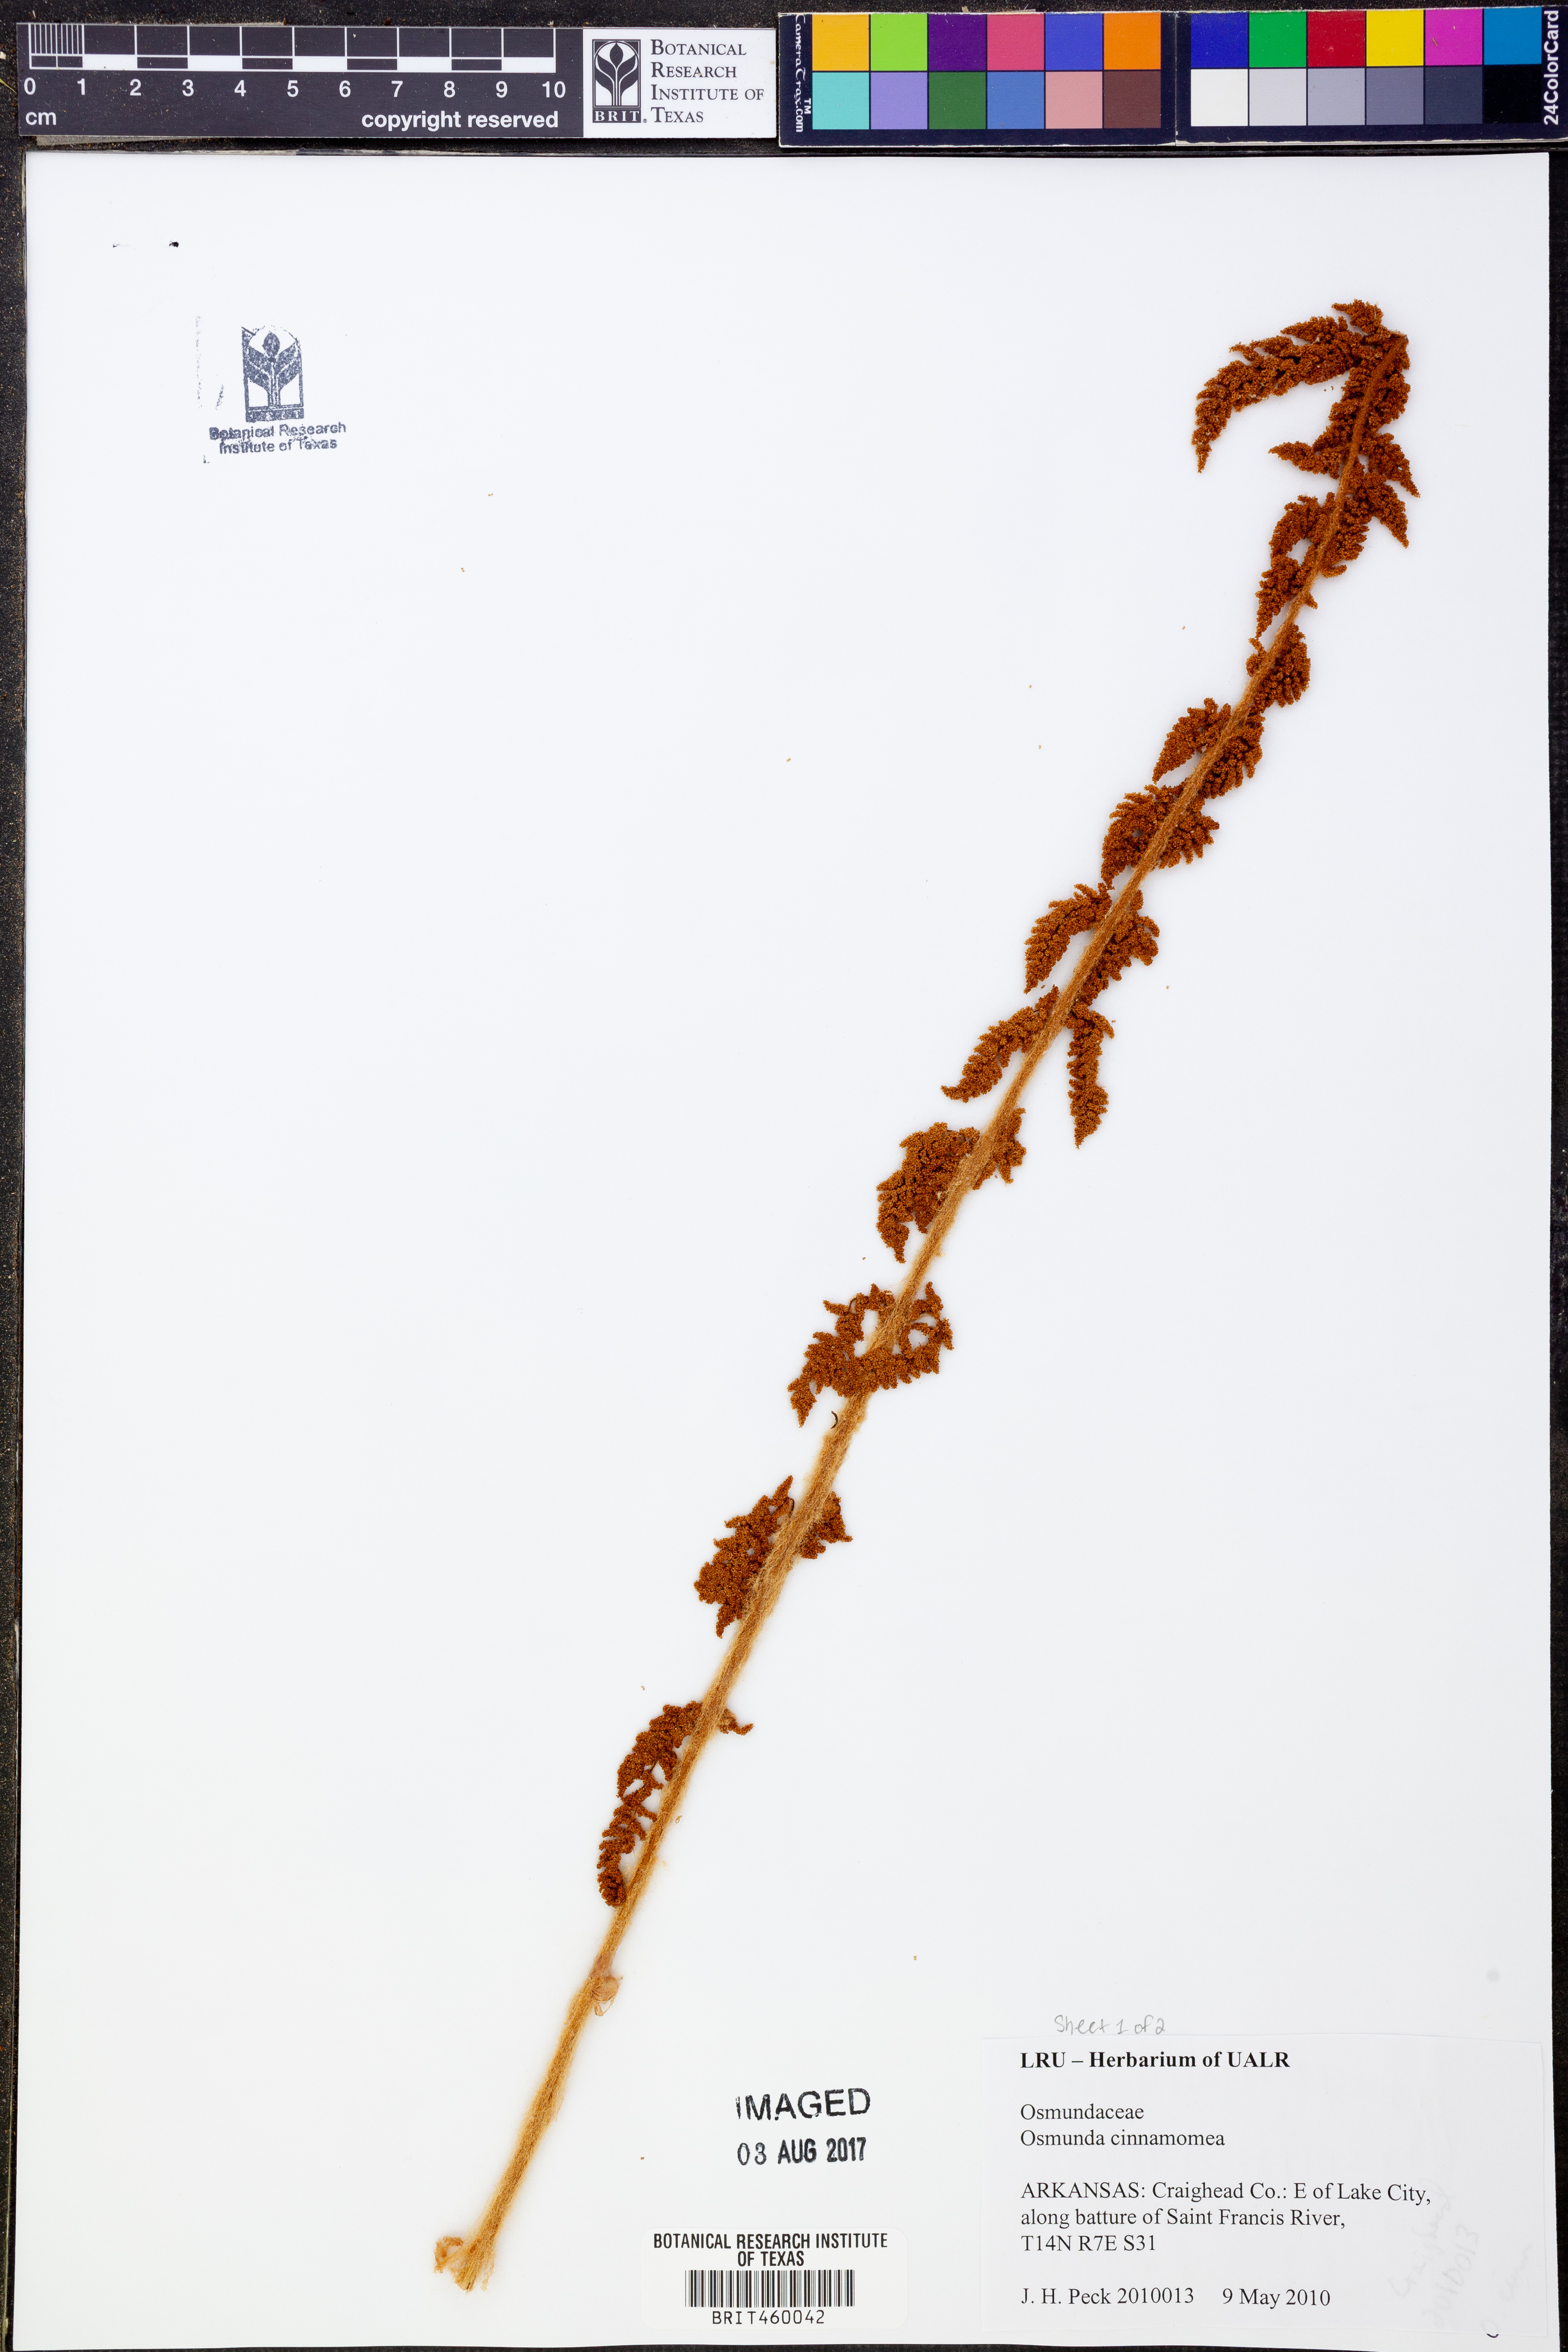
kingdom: Plantae
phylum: Tracheophyta
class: Polypodiopsida
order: Osmundales
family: Osmundaceae
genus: Osmundastrum
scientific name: Osmundastrum cinnamomeum
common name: Cinnamon fern
